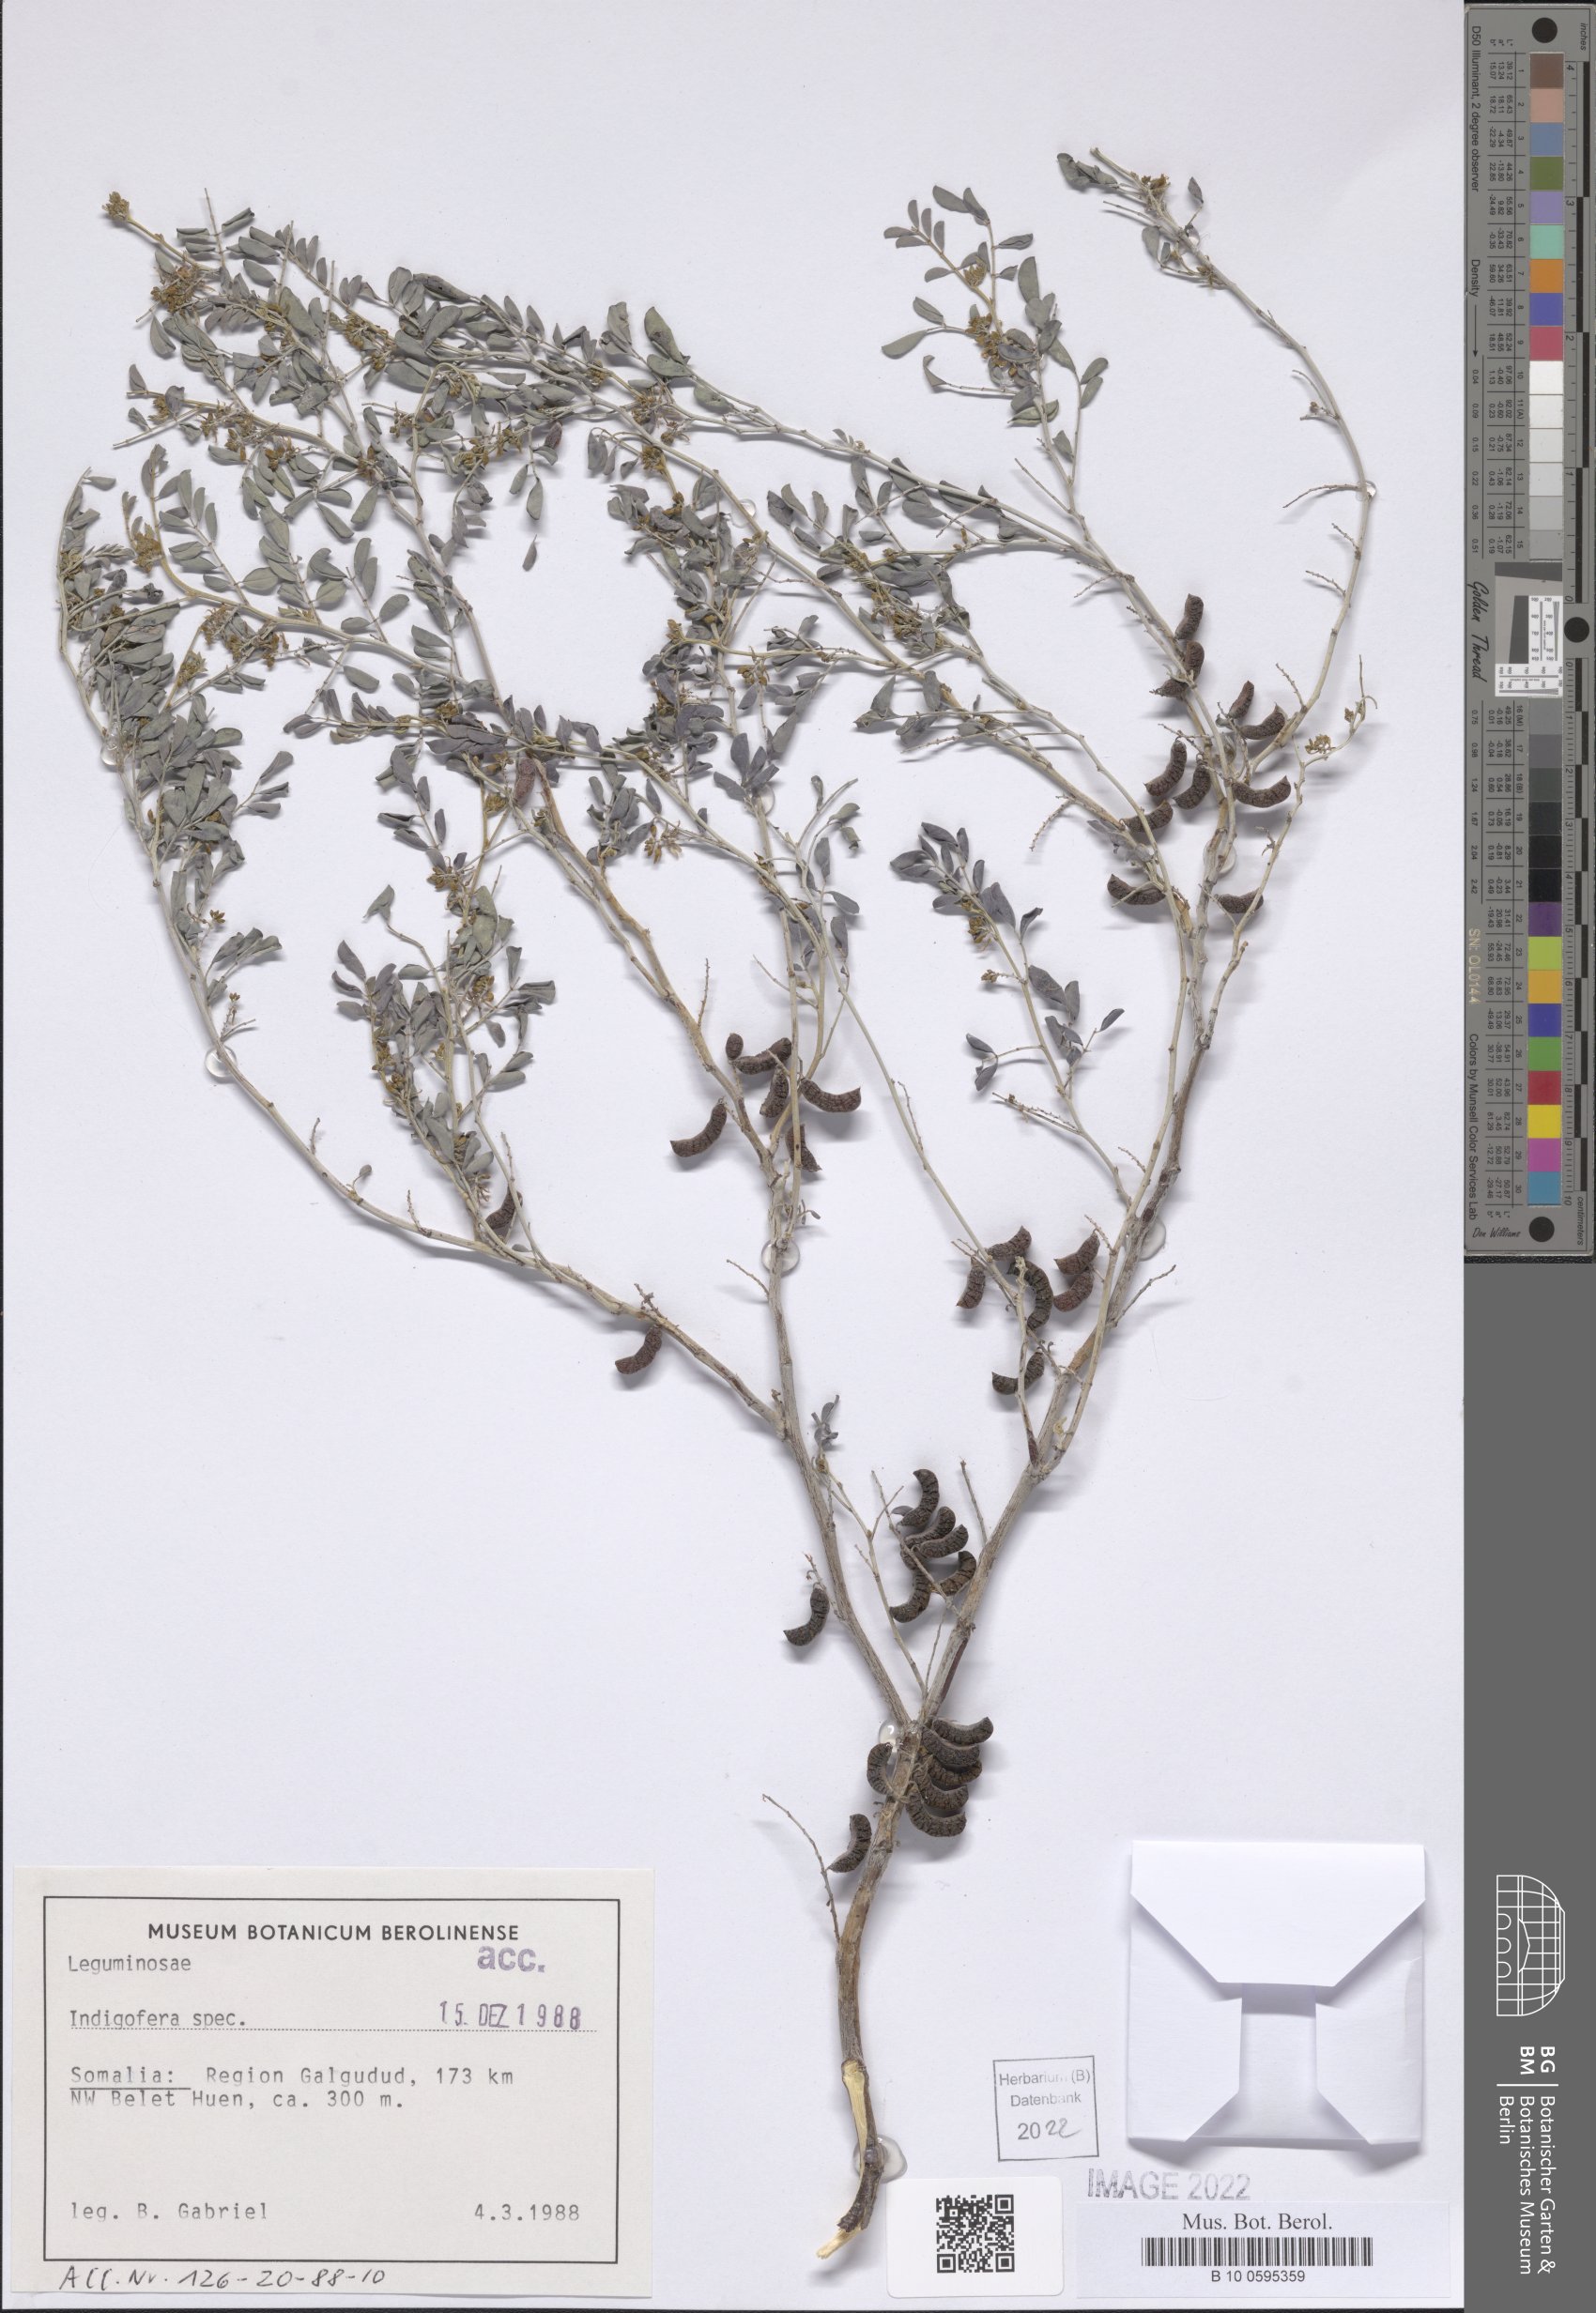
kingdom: Plantae
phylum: Tracheophyta
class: Magnoliopsida
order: Fabales
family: Fabaceae
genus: Indigofera
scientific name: Indigofera
